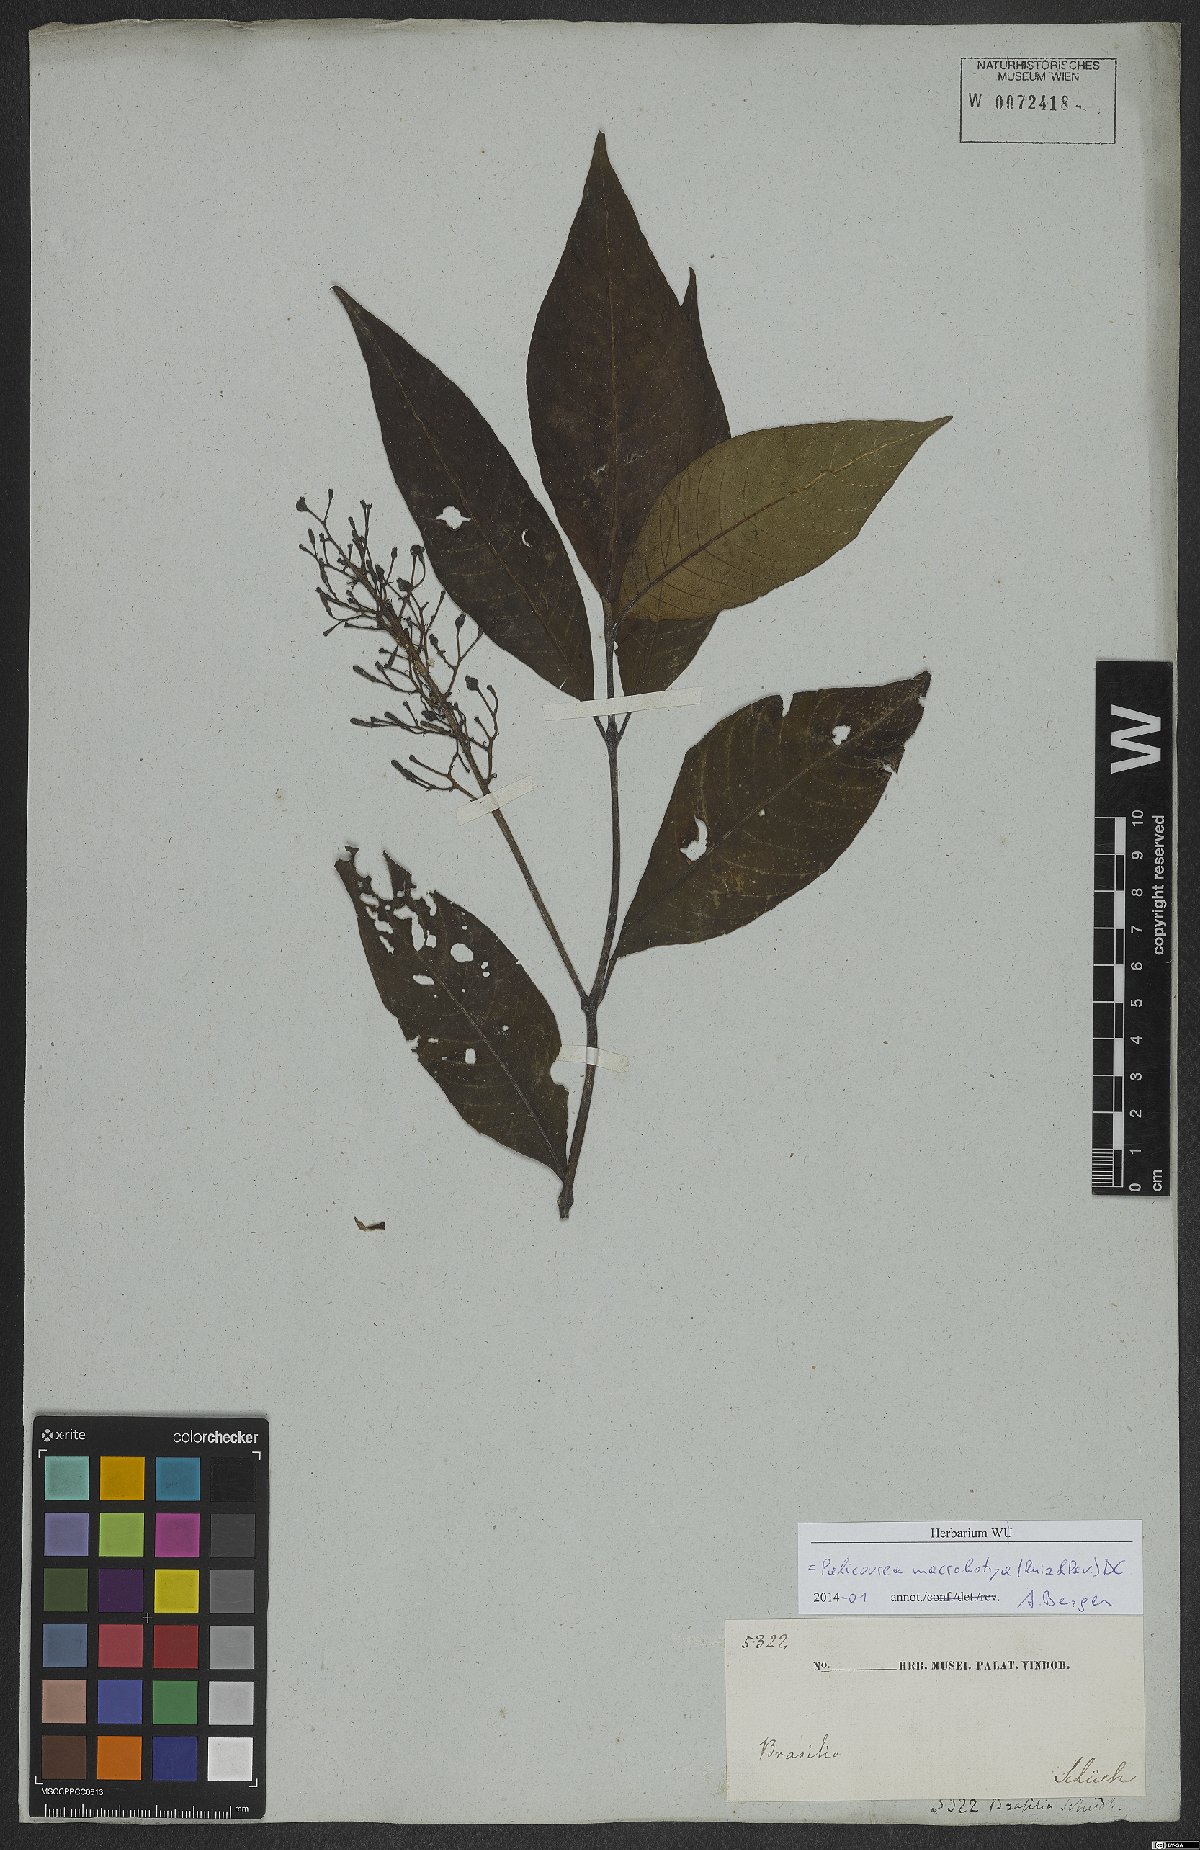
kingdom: Plantae
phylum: Tracheophyta
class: Magnoliopsida
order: Gentianales
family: Rubiaceae
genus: Palicourea
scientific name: Palicourea macrobotrys
